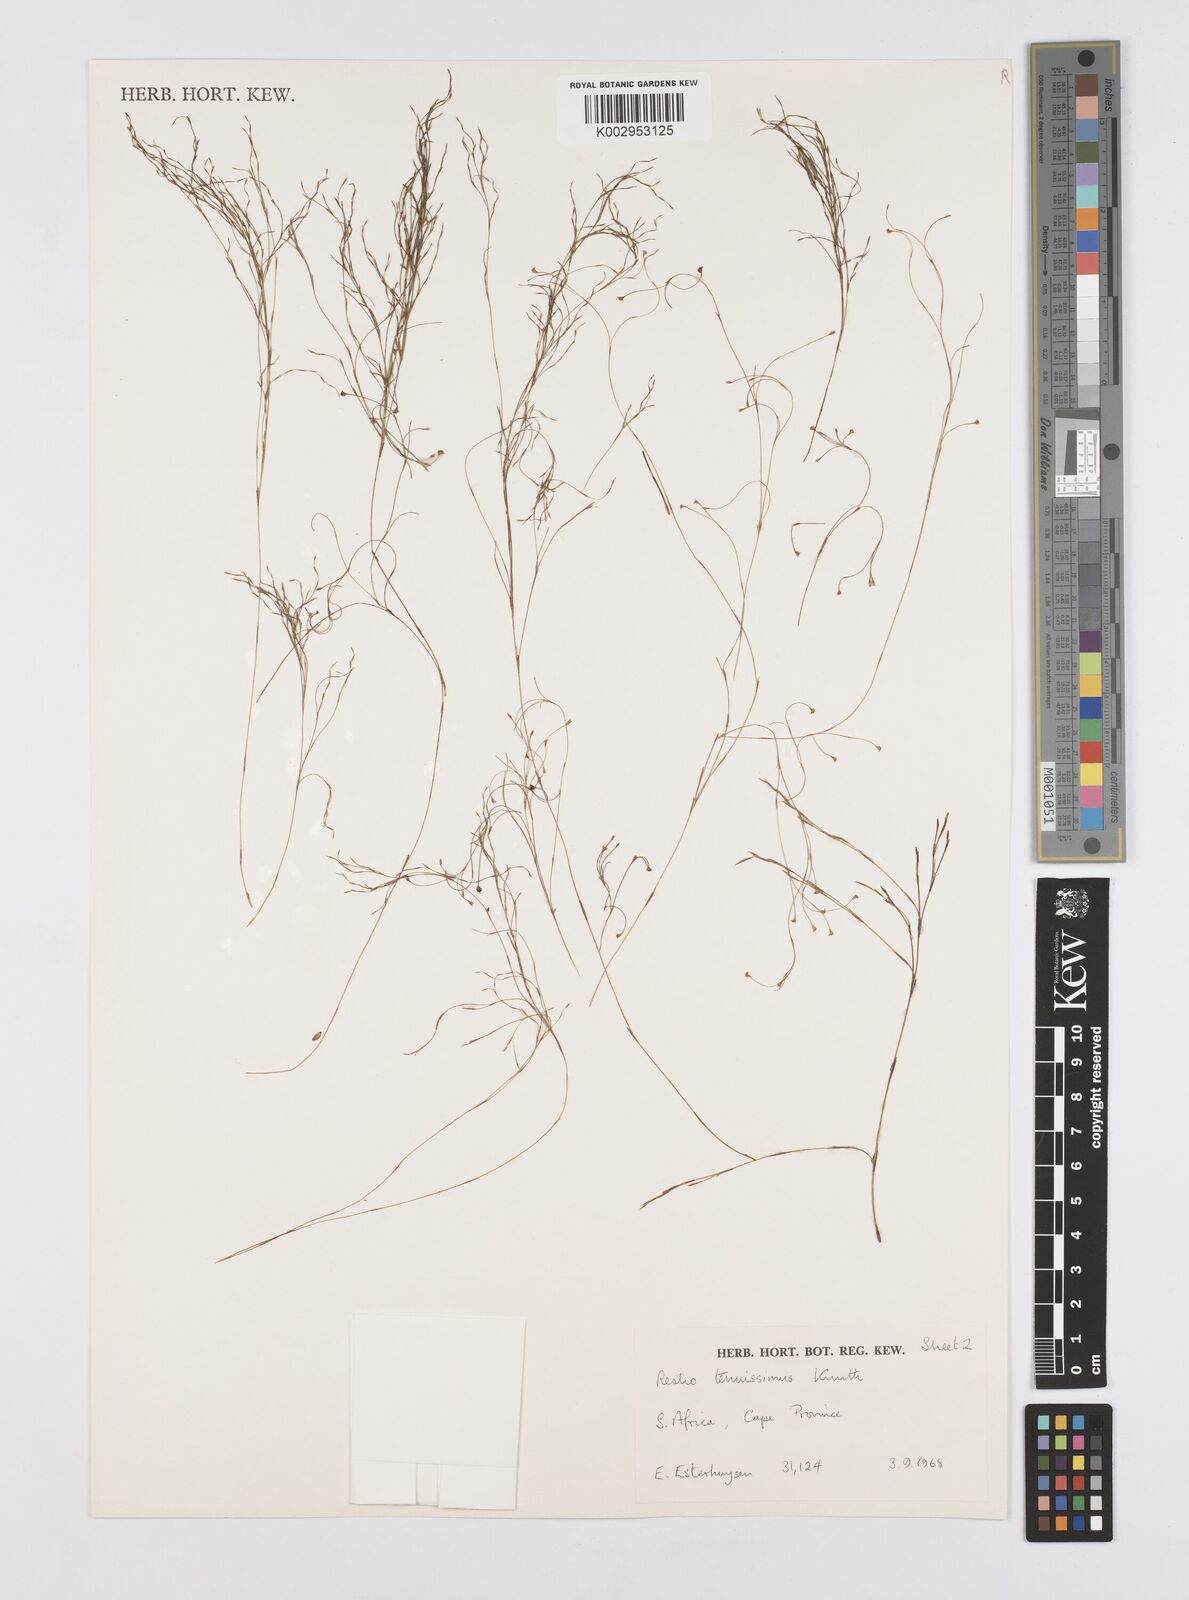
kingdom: Plantae
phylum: Tracheophyta
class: Liliopsida
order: Poales
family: Restionaceae
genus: Restio
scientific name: Restio tenuissimus
